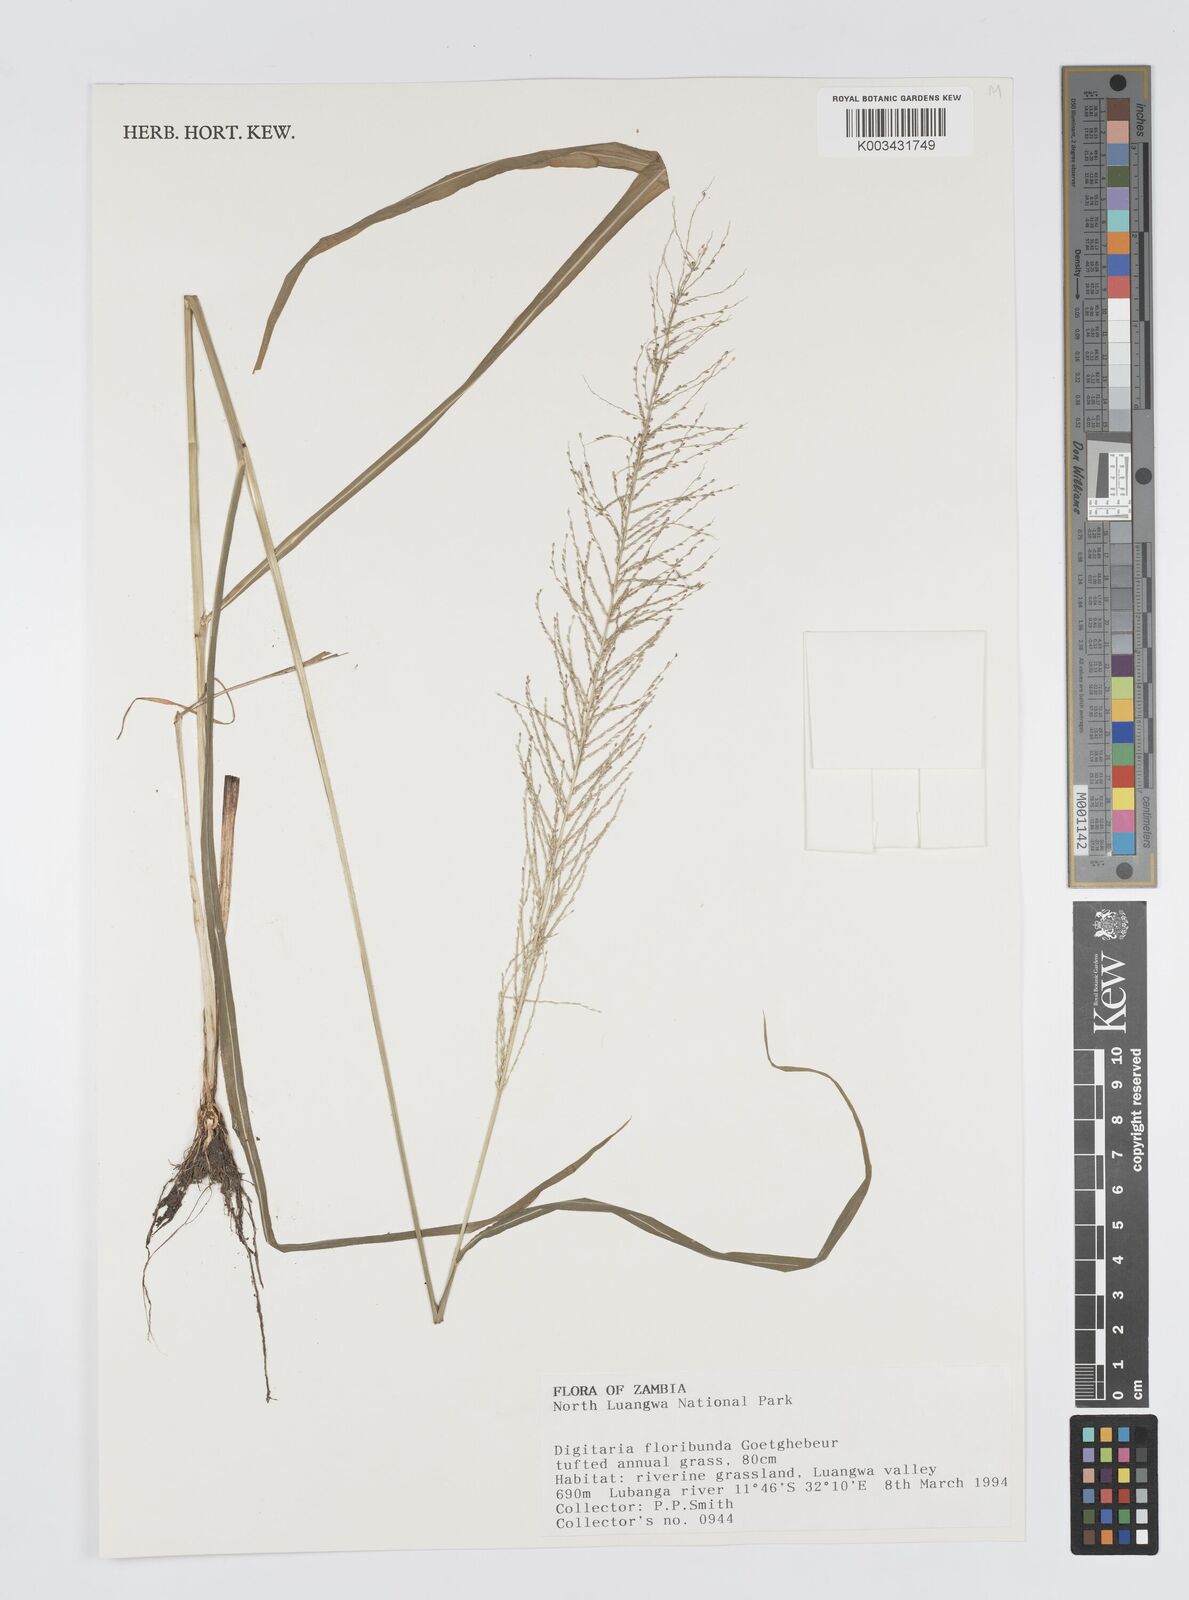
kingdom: Plantae
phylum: Tracheophyta
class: Liliopsida
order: Poales
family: Poaceae
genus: Digitaria
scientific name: Digitaria perrottetii
